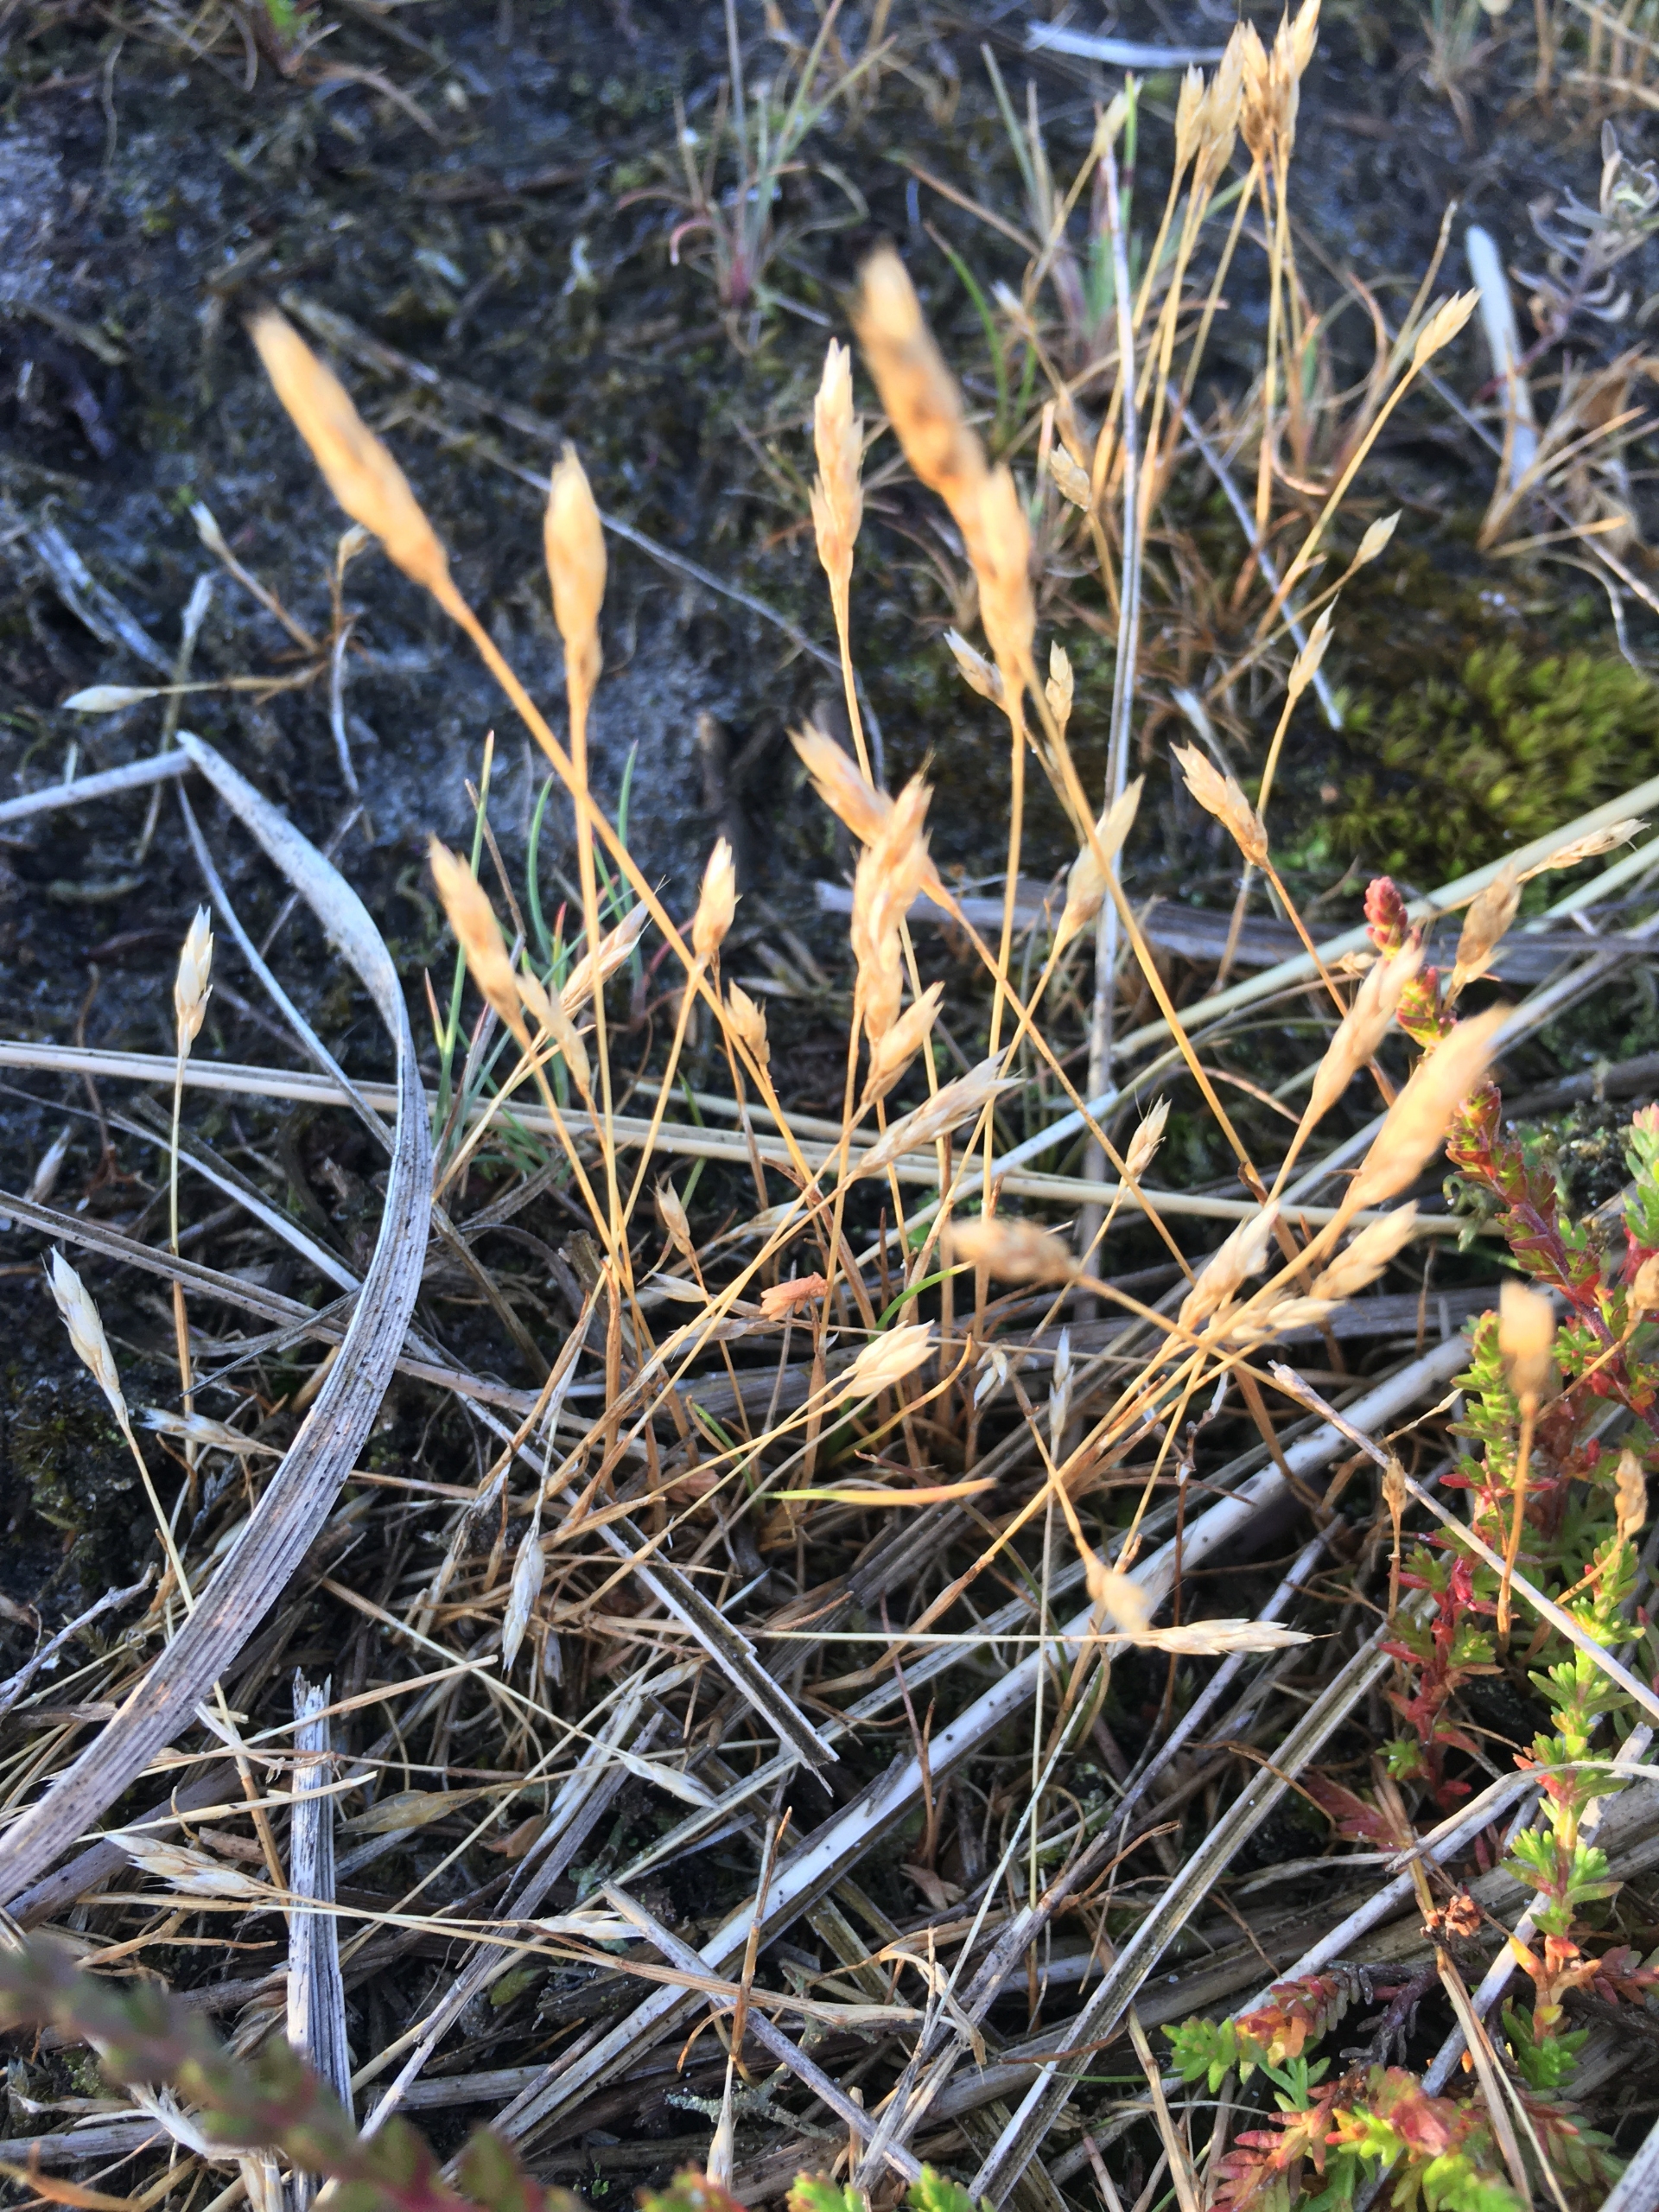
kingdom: Plantae
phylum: Tracheophyta
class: Liliopsida
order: Poales
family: Poaceae
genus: Aira
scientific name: Aira praecox
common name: Tidlig dværgbunke
